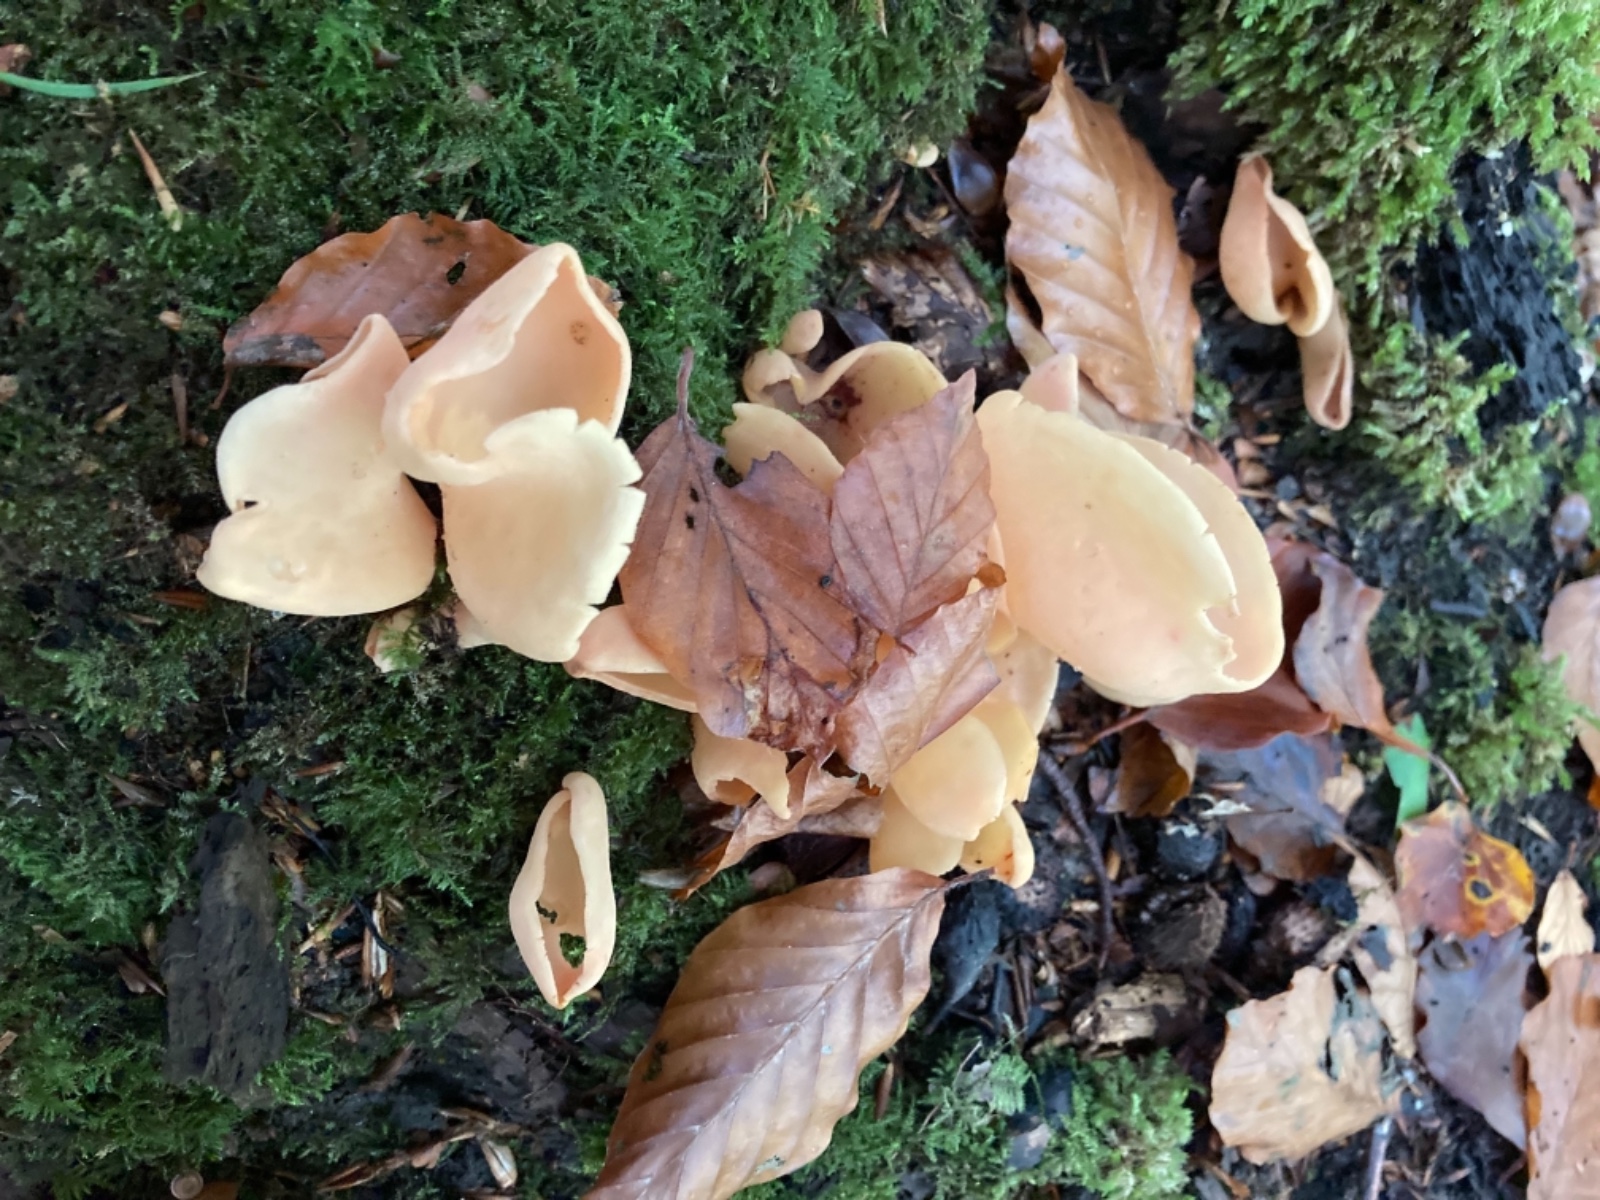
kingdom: Fungi
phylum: Ascomycota
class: Pezizomycetes
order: Pezizales
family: Otideaceae
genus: Otidea
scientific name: Otidea onotica
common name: æsel-ørebæger
